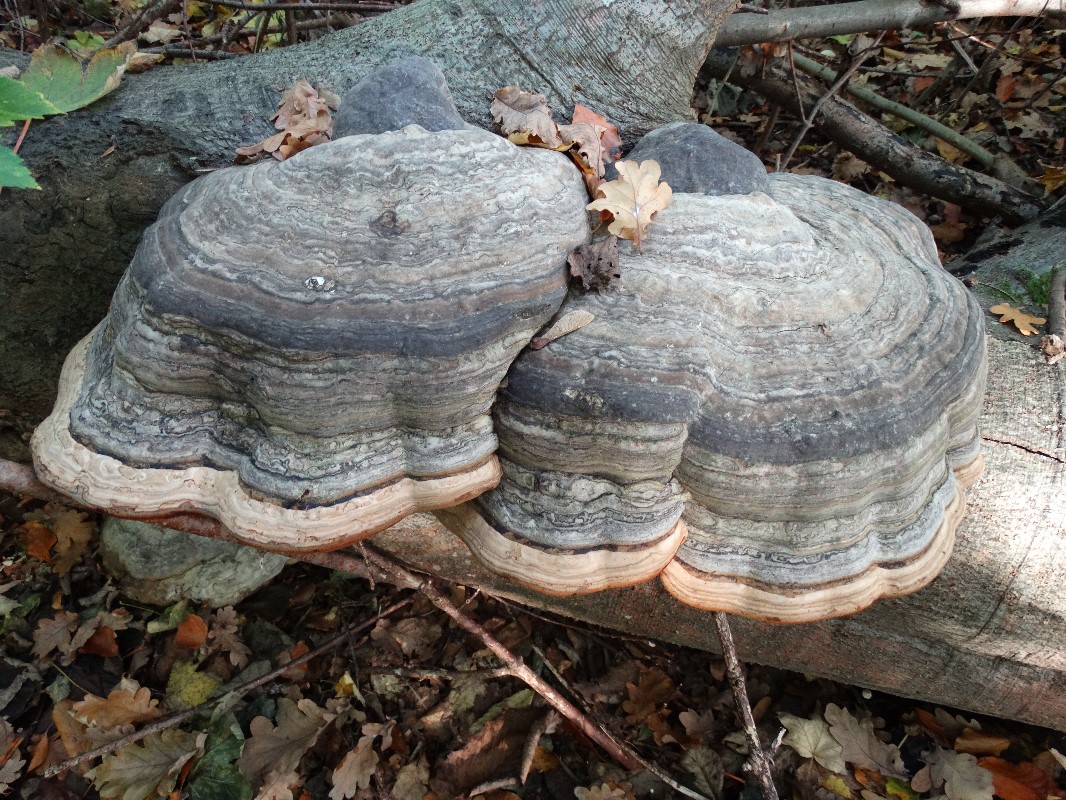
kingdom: Fungi
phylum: Basidiomycota
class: Agaricomycetes
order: Polyporales
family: Polyporaceae
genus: Fomes
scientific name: Fomes fomentarius
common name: tøndersvamp
